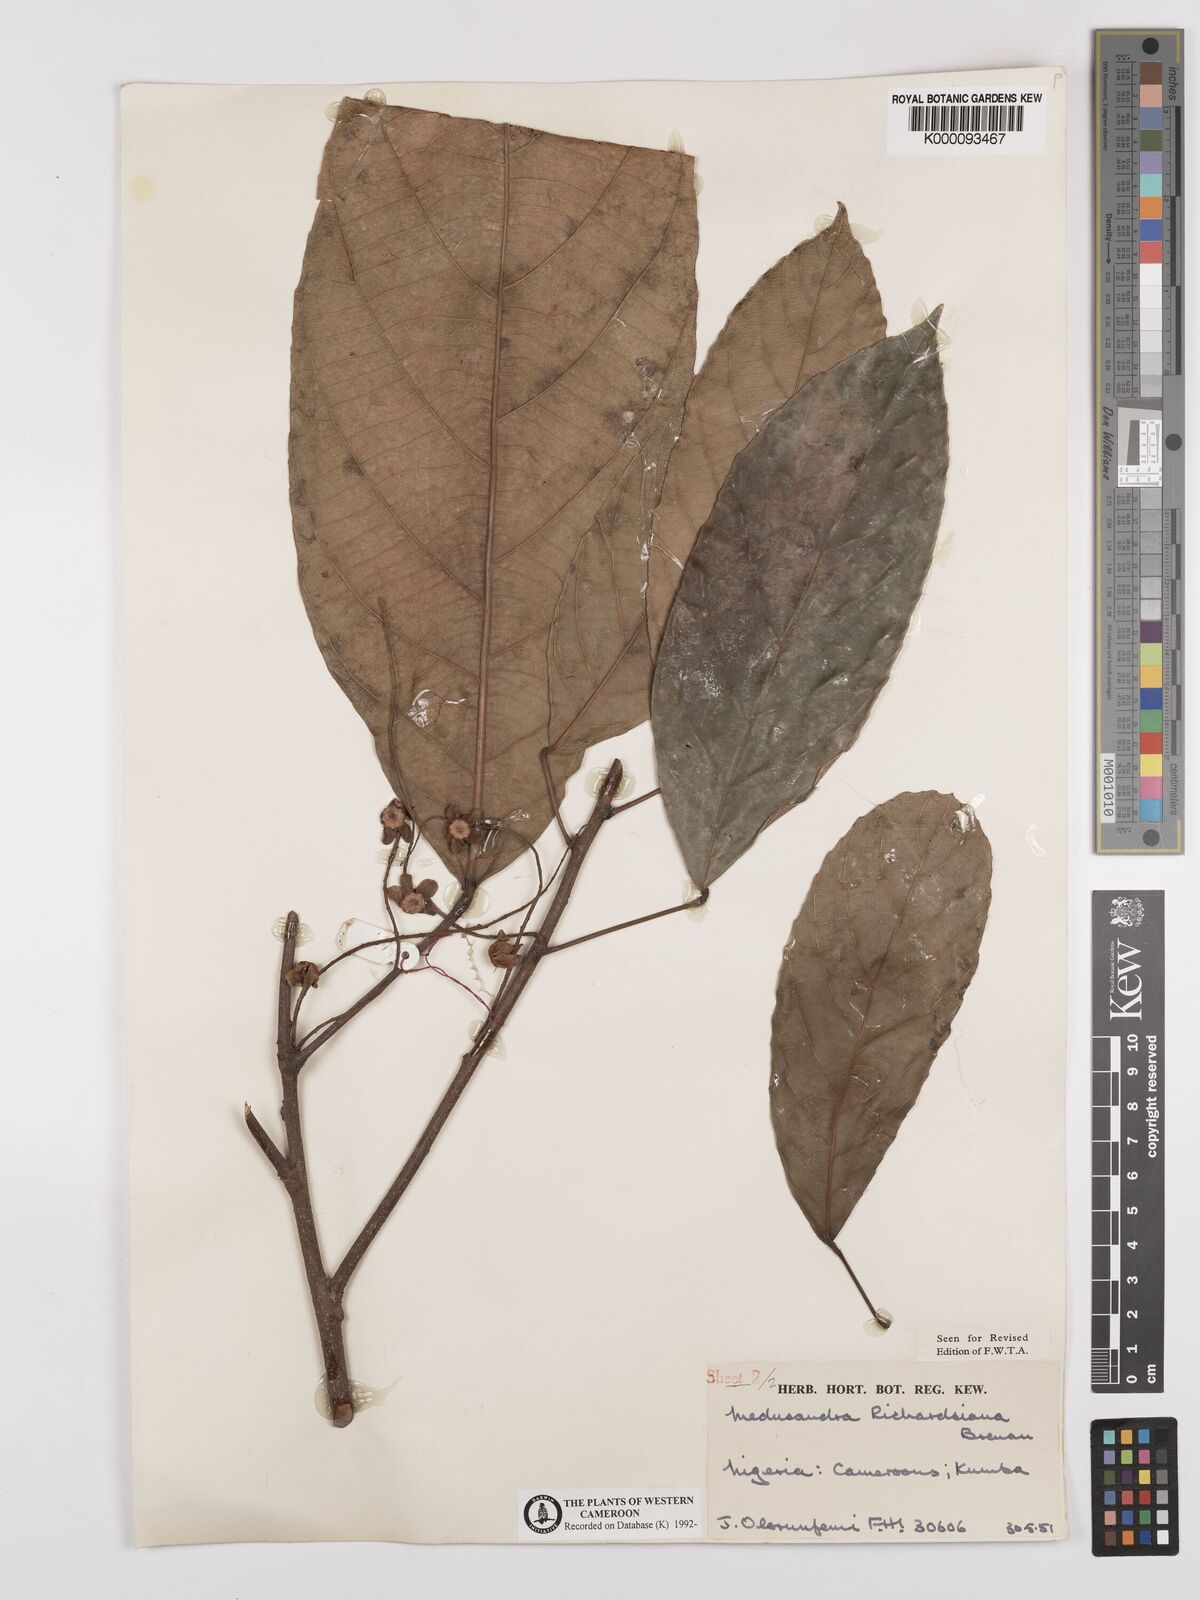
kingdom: Plantae
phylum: Tracheophyta
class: Magnoliopsida
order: Saxifragales
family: Peridiscaceae
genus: Medusandra
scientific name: Medusandra richardsiana
